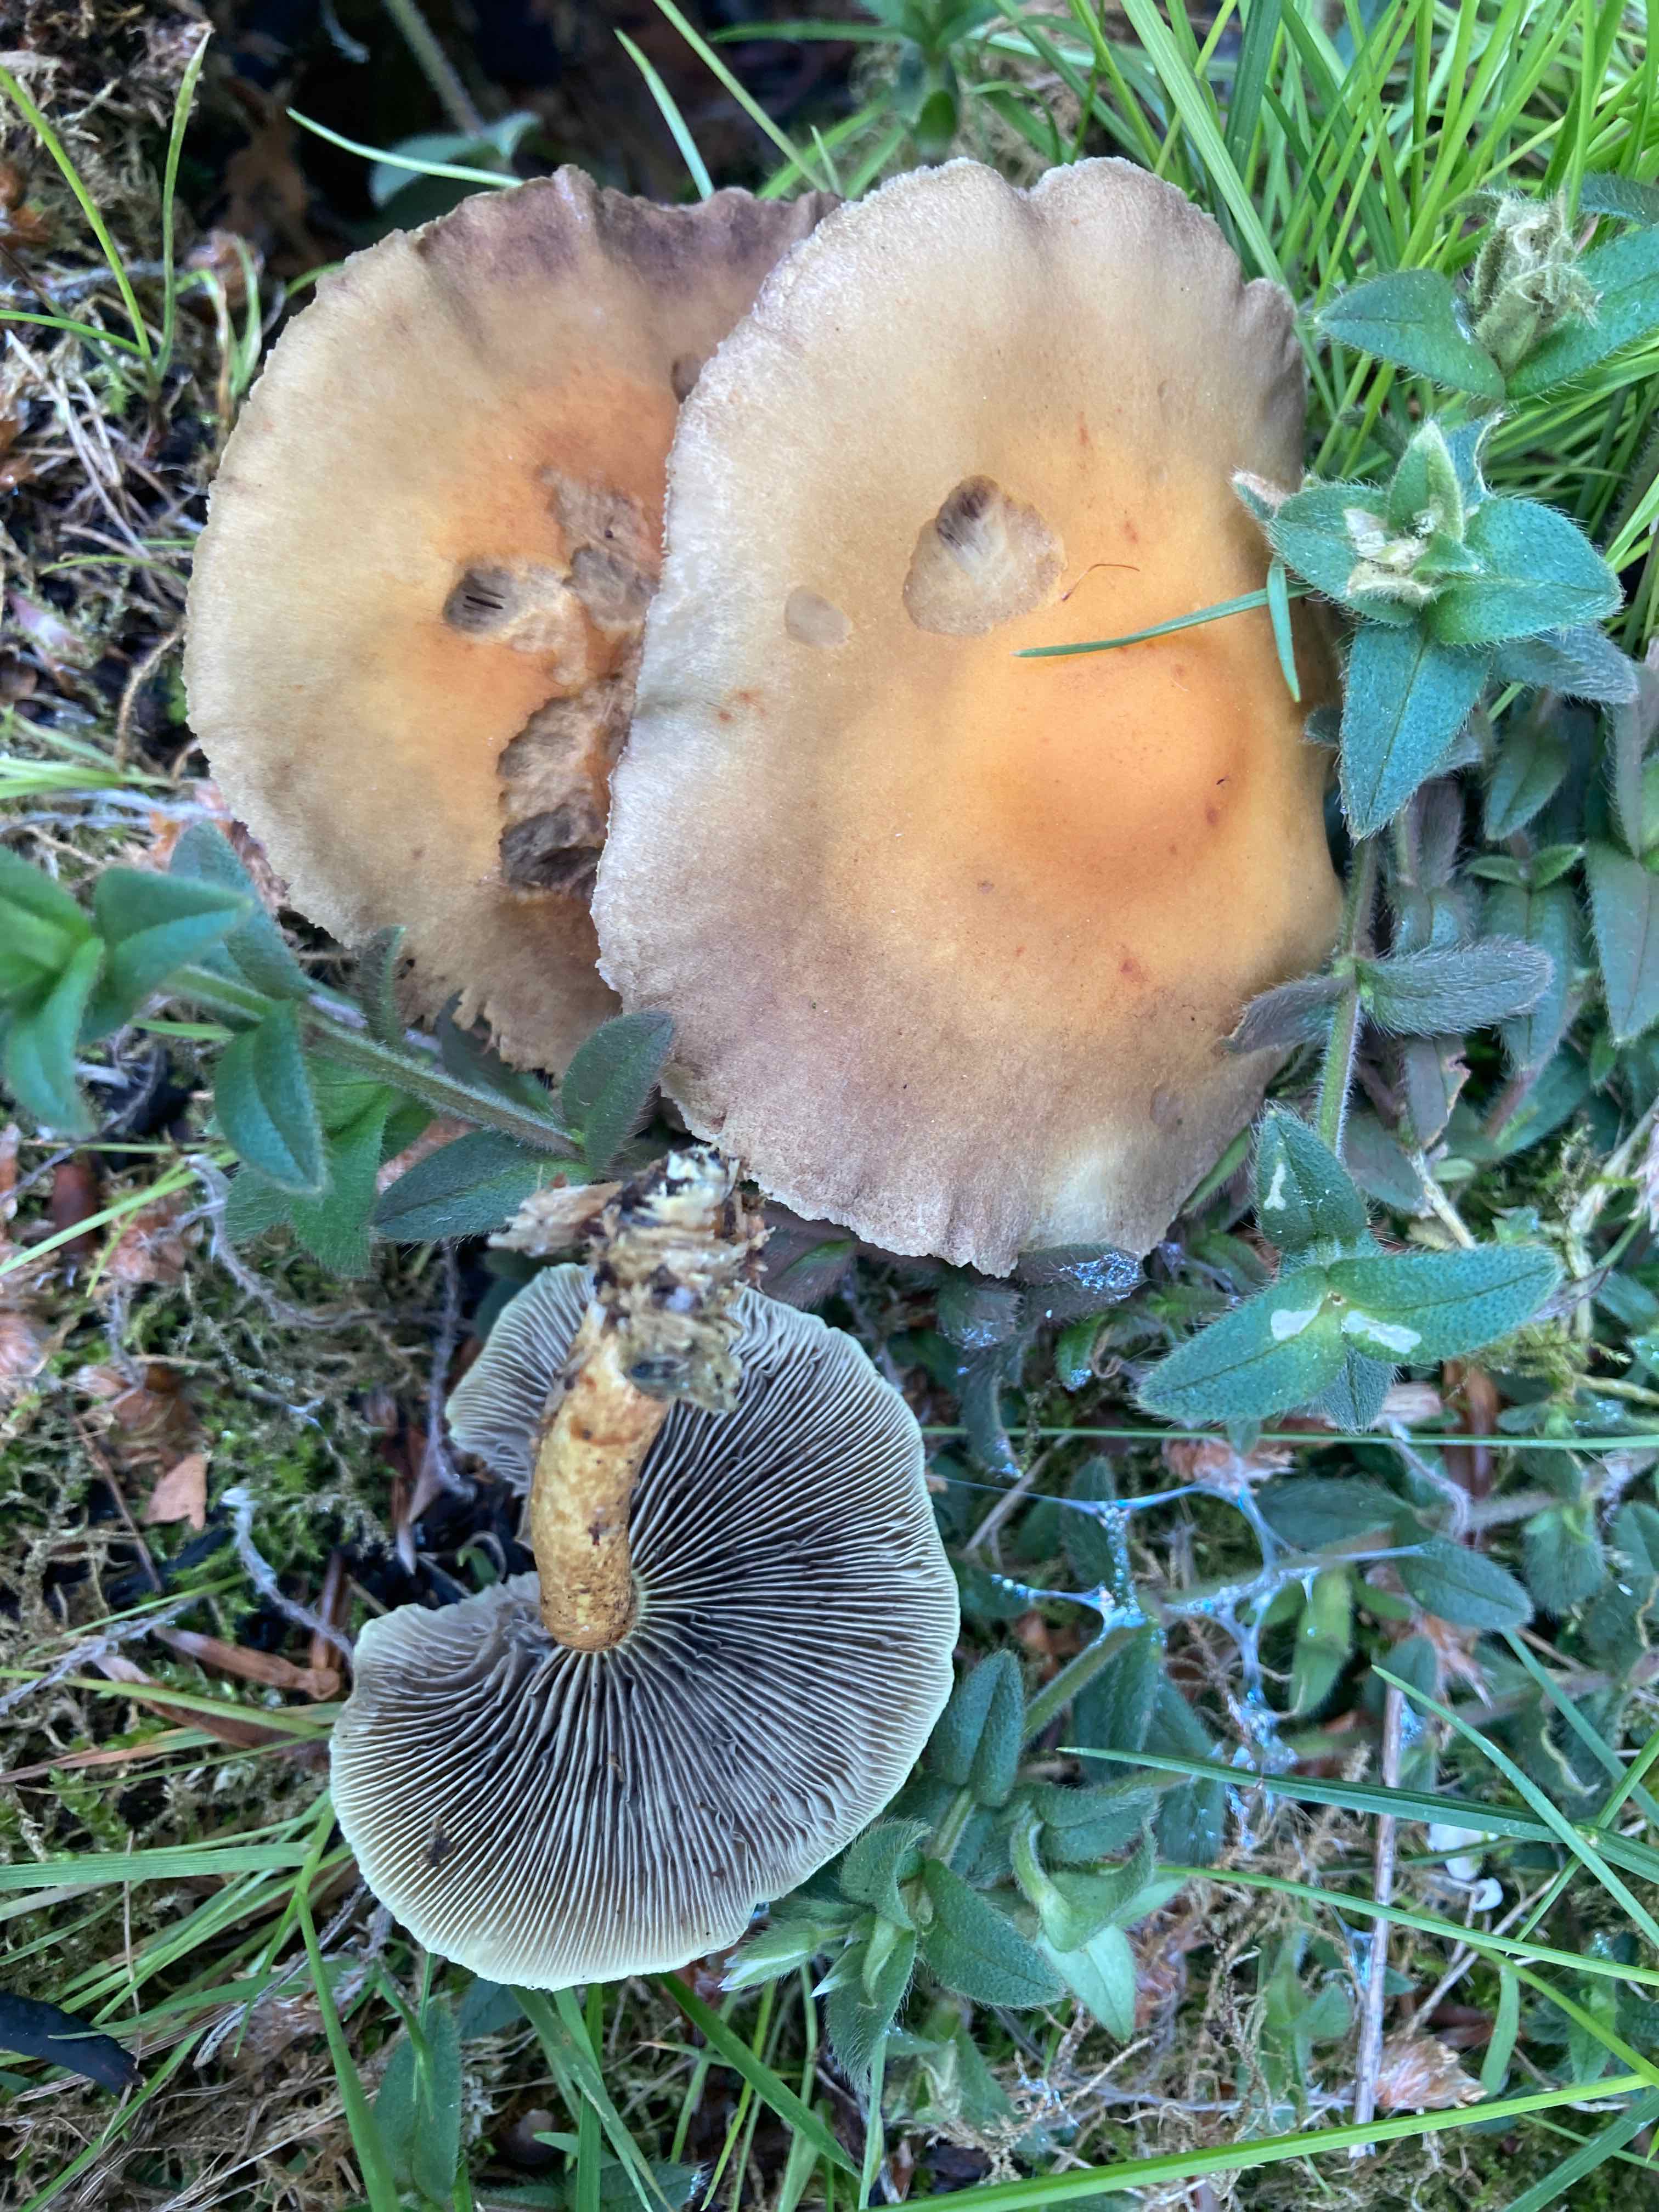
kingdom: Fungi
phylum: Basidiomycota
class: Agaricomycetes
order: Agaricales
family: Strophariaceae
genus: Hypholoma
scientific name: Hypholoma fasciculare
